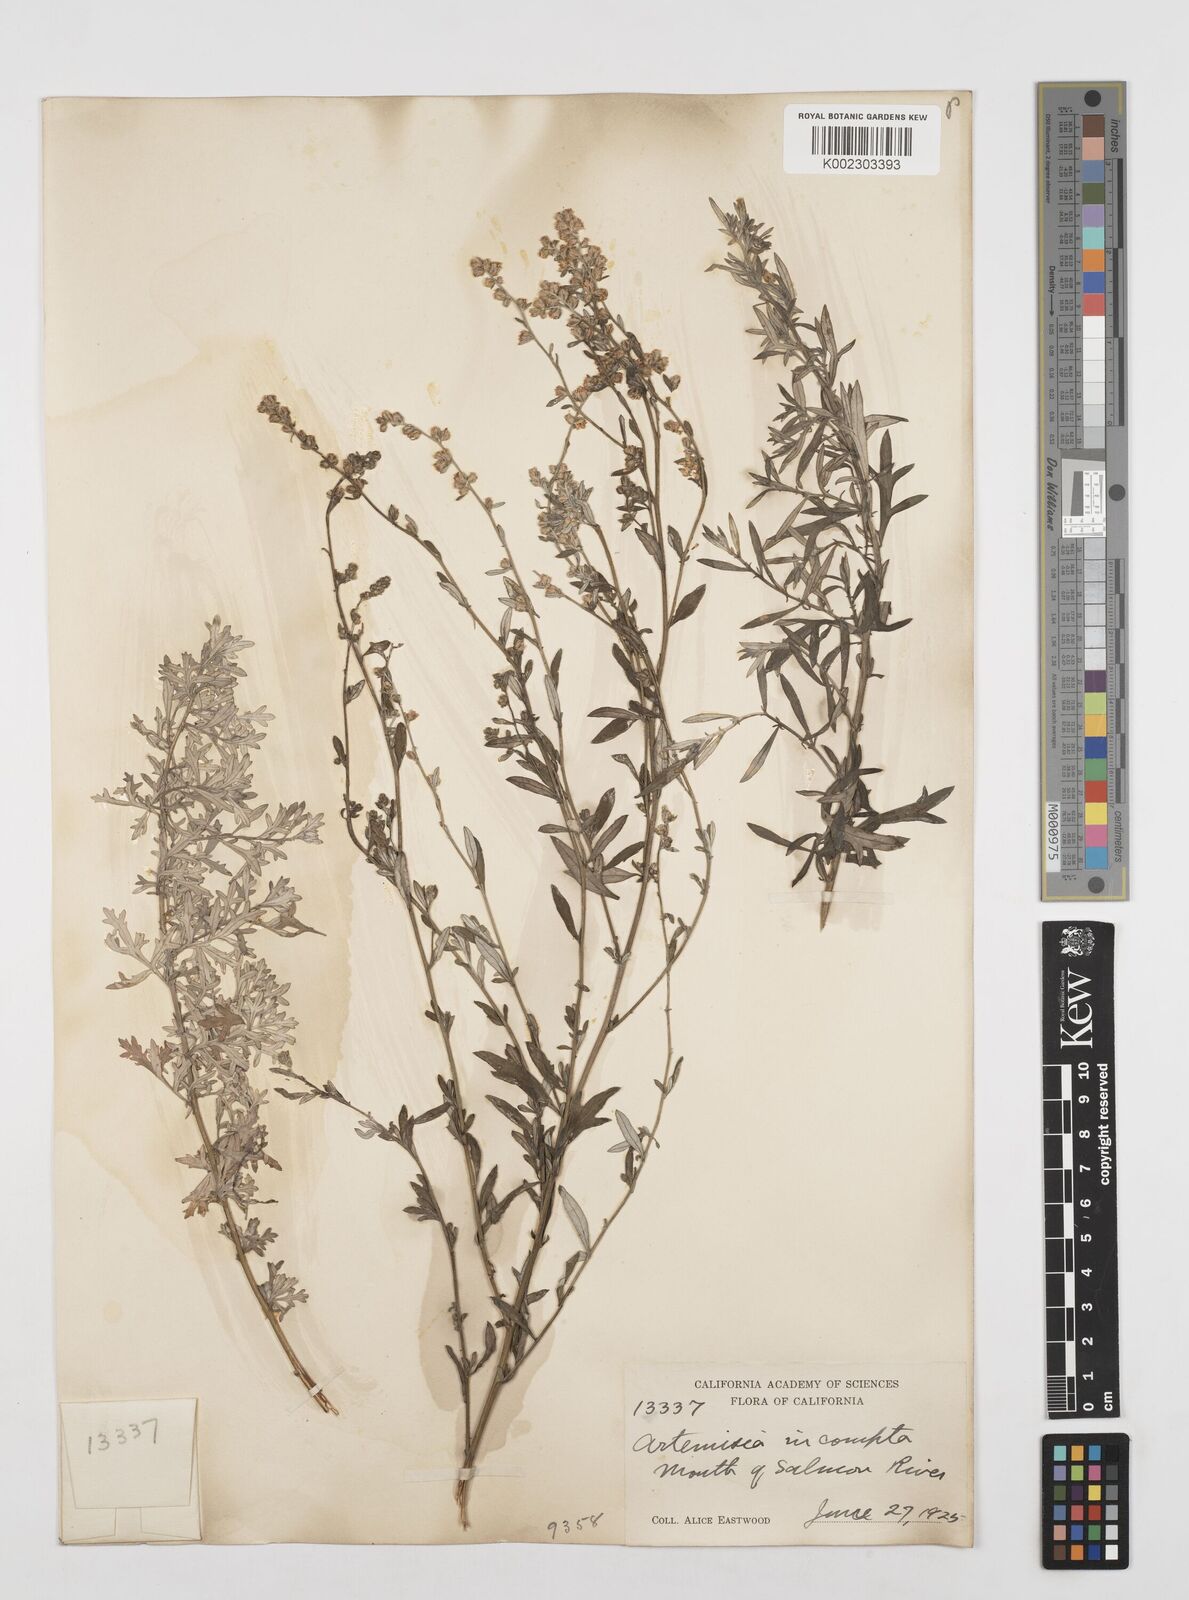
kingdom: Plantae
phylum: Tracheophyta
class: Magnoliopsida
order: Asterales
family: Asteraceae
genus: Artemisia
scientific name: Artemisia
